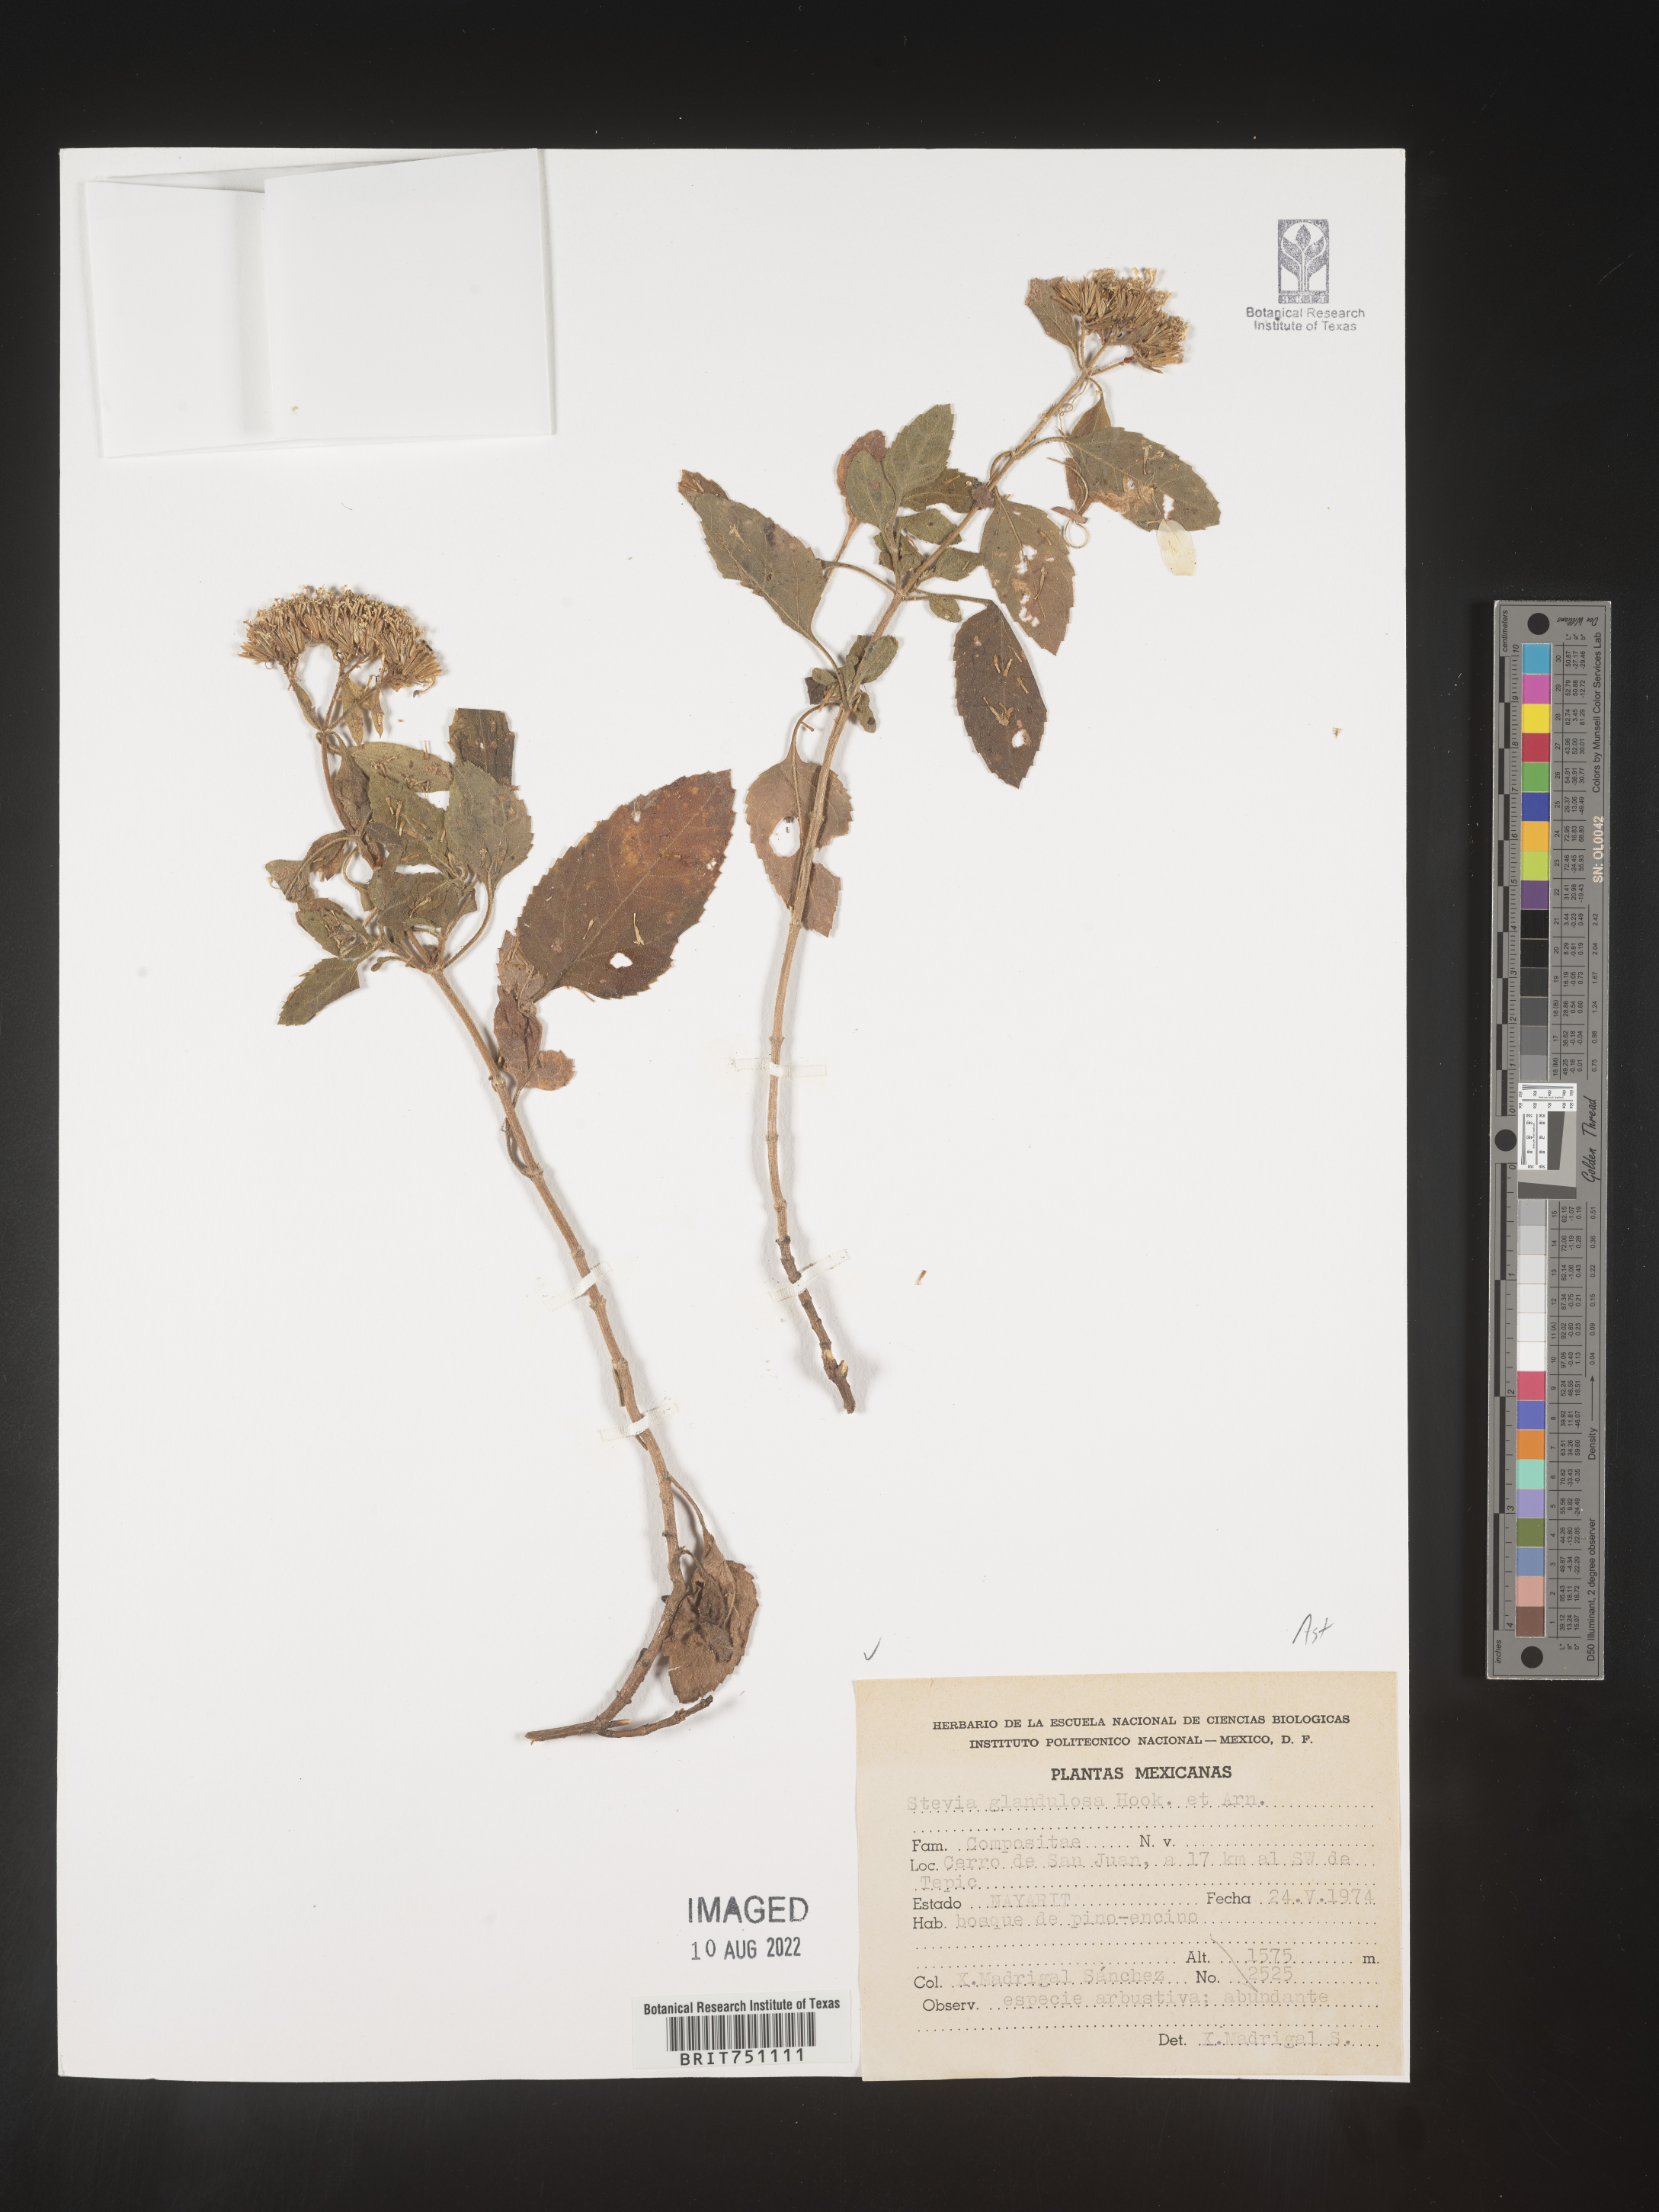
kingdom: Plantae
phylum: Tracheophyta
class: Magnoliopsida
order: Asterales
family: Asteraceae
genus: Stevia
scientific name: Stevia
